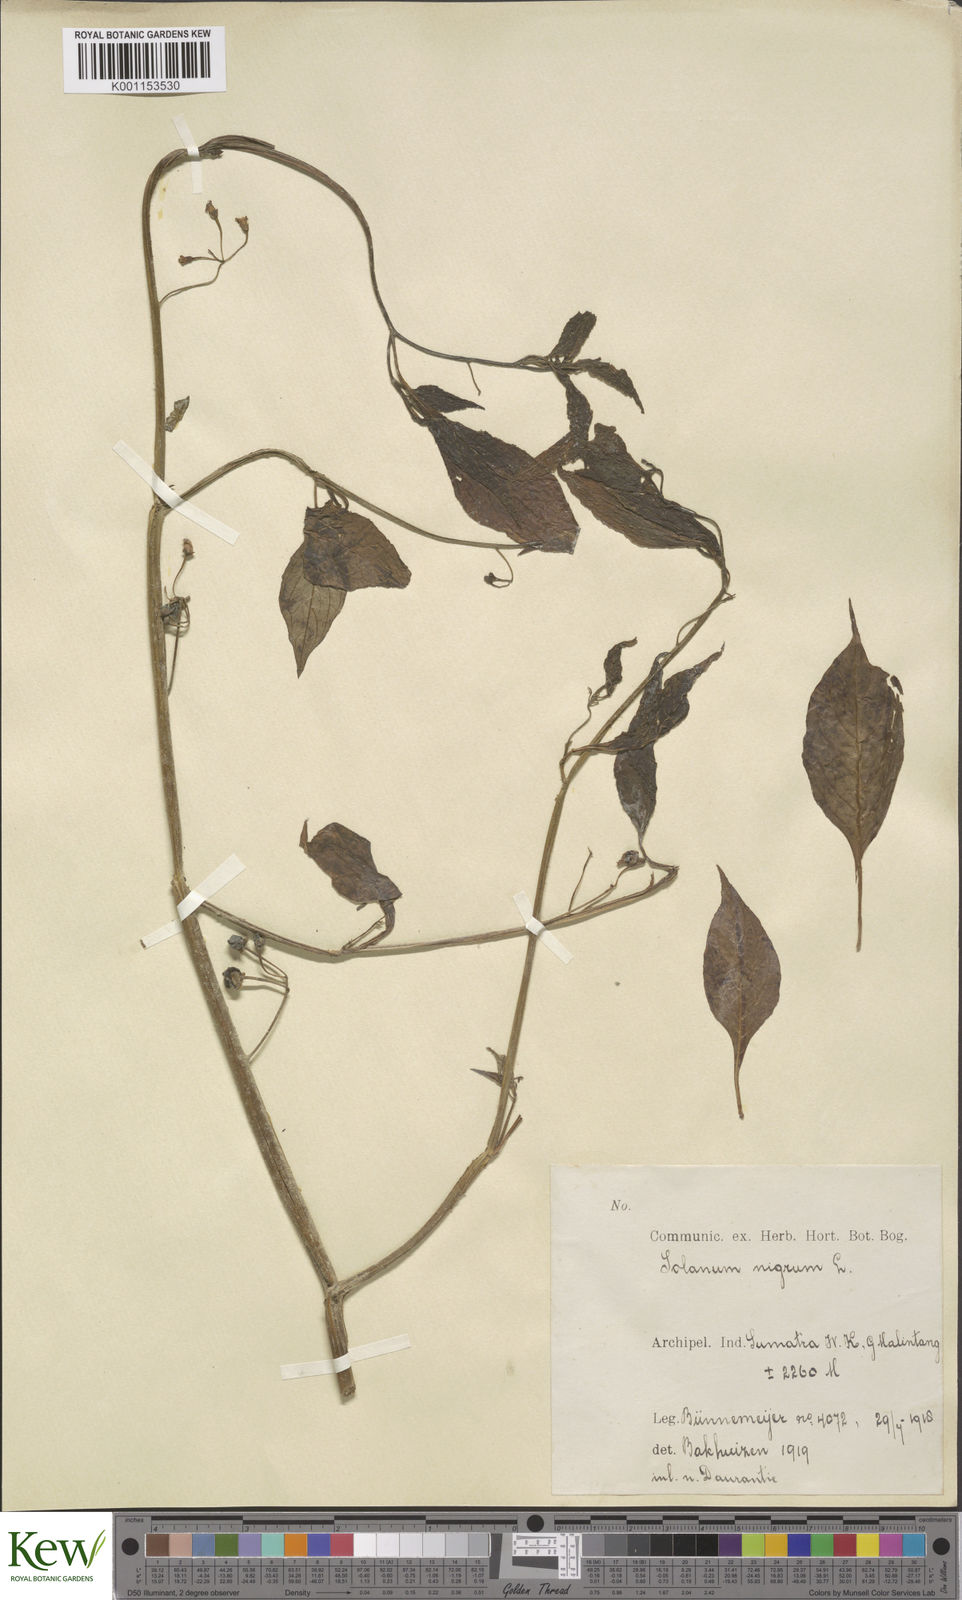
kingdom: Plantae
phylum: Tracheophyta
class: Magnoliopsida
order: Solanales
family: Solanaceae
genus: Solanum
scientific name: Solanum nigrum
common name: Black nightshade
